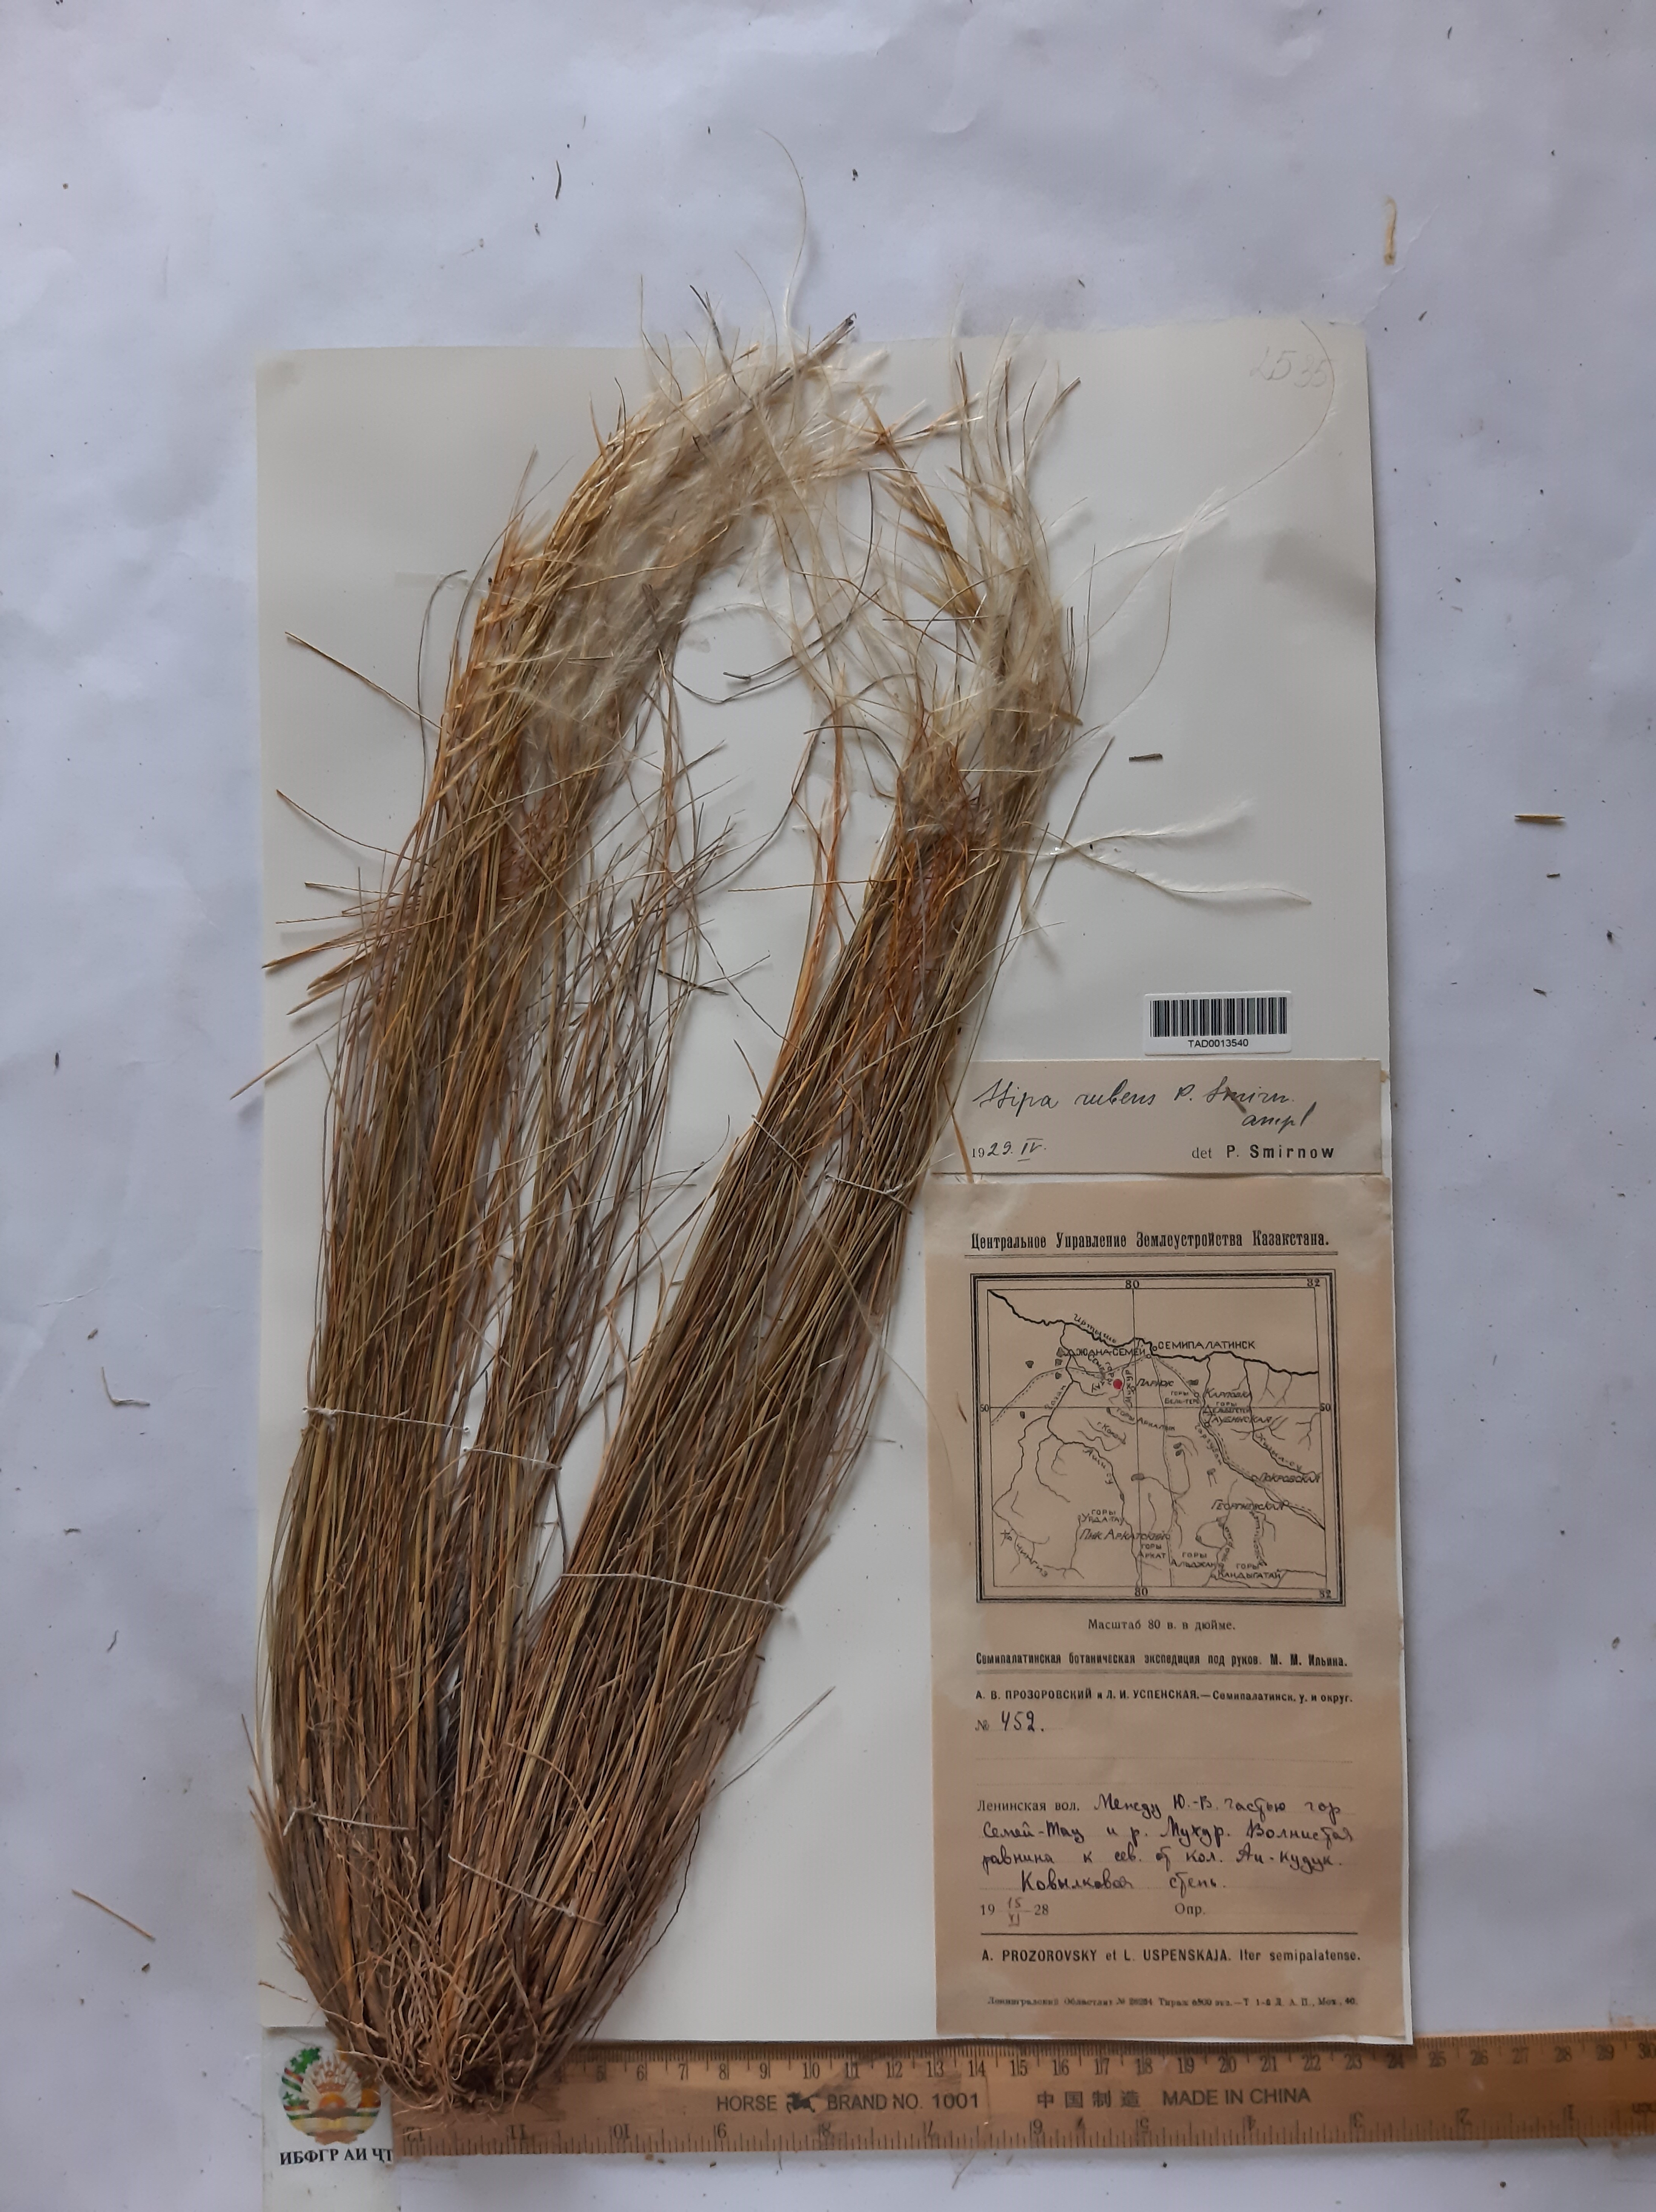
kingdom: Plantae
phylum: Tracheophyta
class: Liliopsida
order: Poales
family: Poaceae
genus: Stipa
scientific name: Stipa zalesskyi
